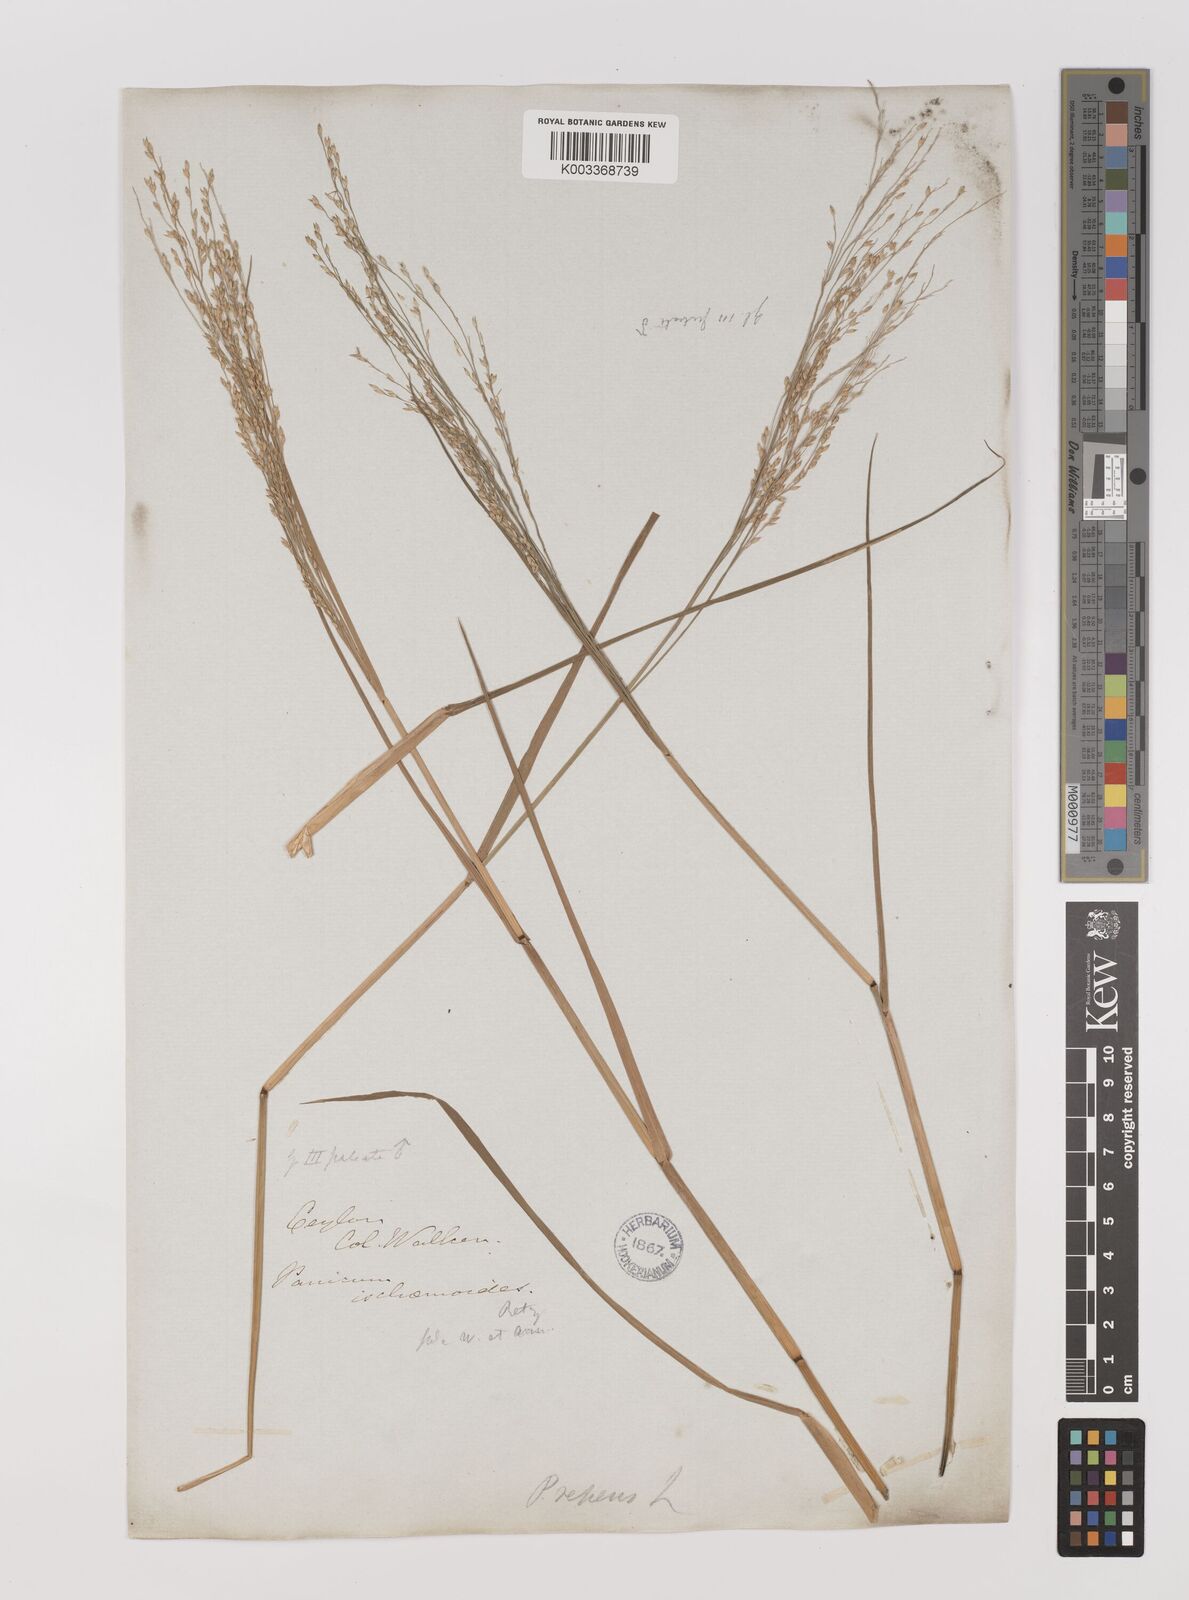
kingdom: Plantae
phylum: Tracheophyta
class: Liliopsida
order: Poales
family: Poaceae
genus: Panicum
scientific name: Panicum repens
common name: Torpedo grass
